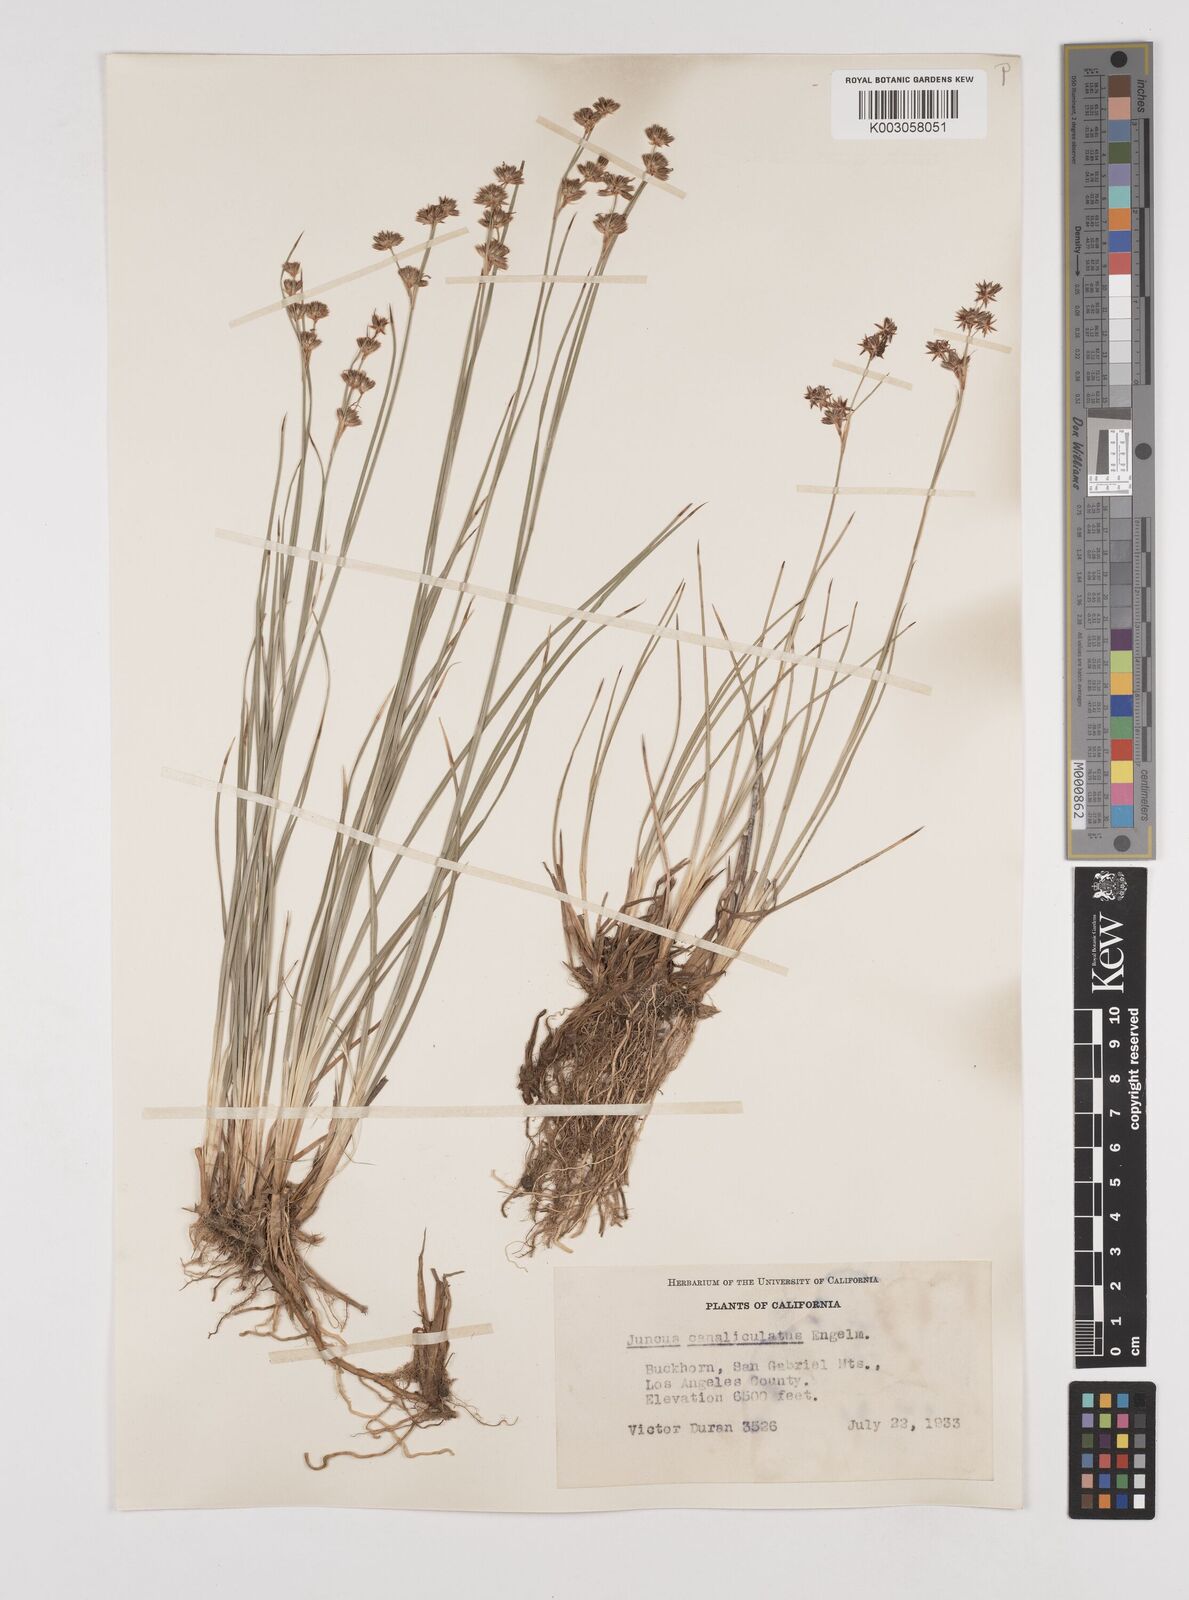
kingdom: Plantae
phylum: Tracheophyta
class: Liliopsida
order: Poales
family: Juncaceae
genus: Juncus
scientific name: Juncus macrophyllus
